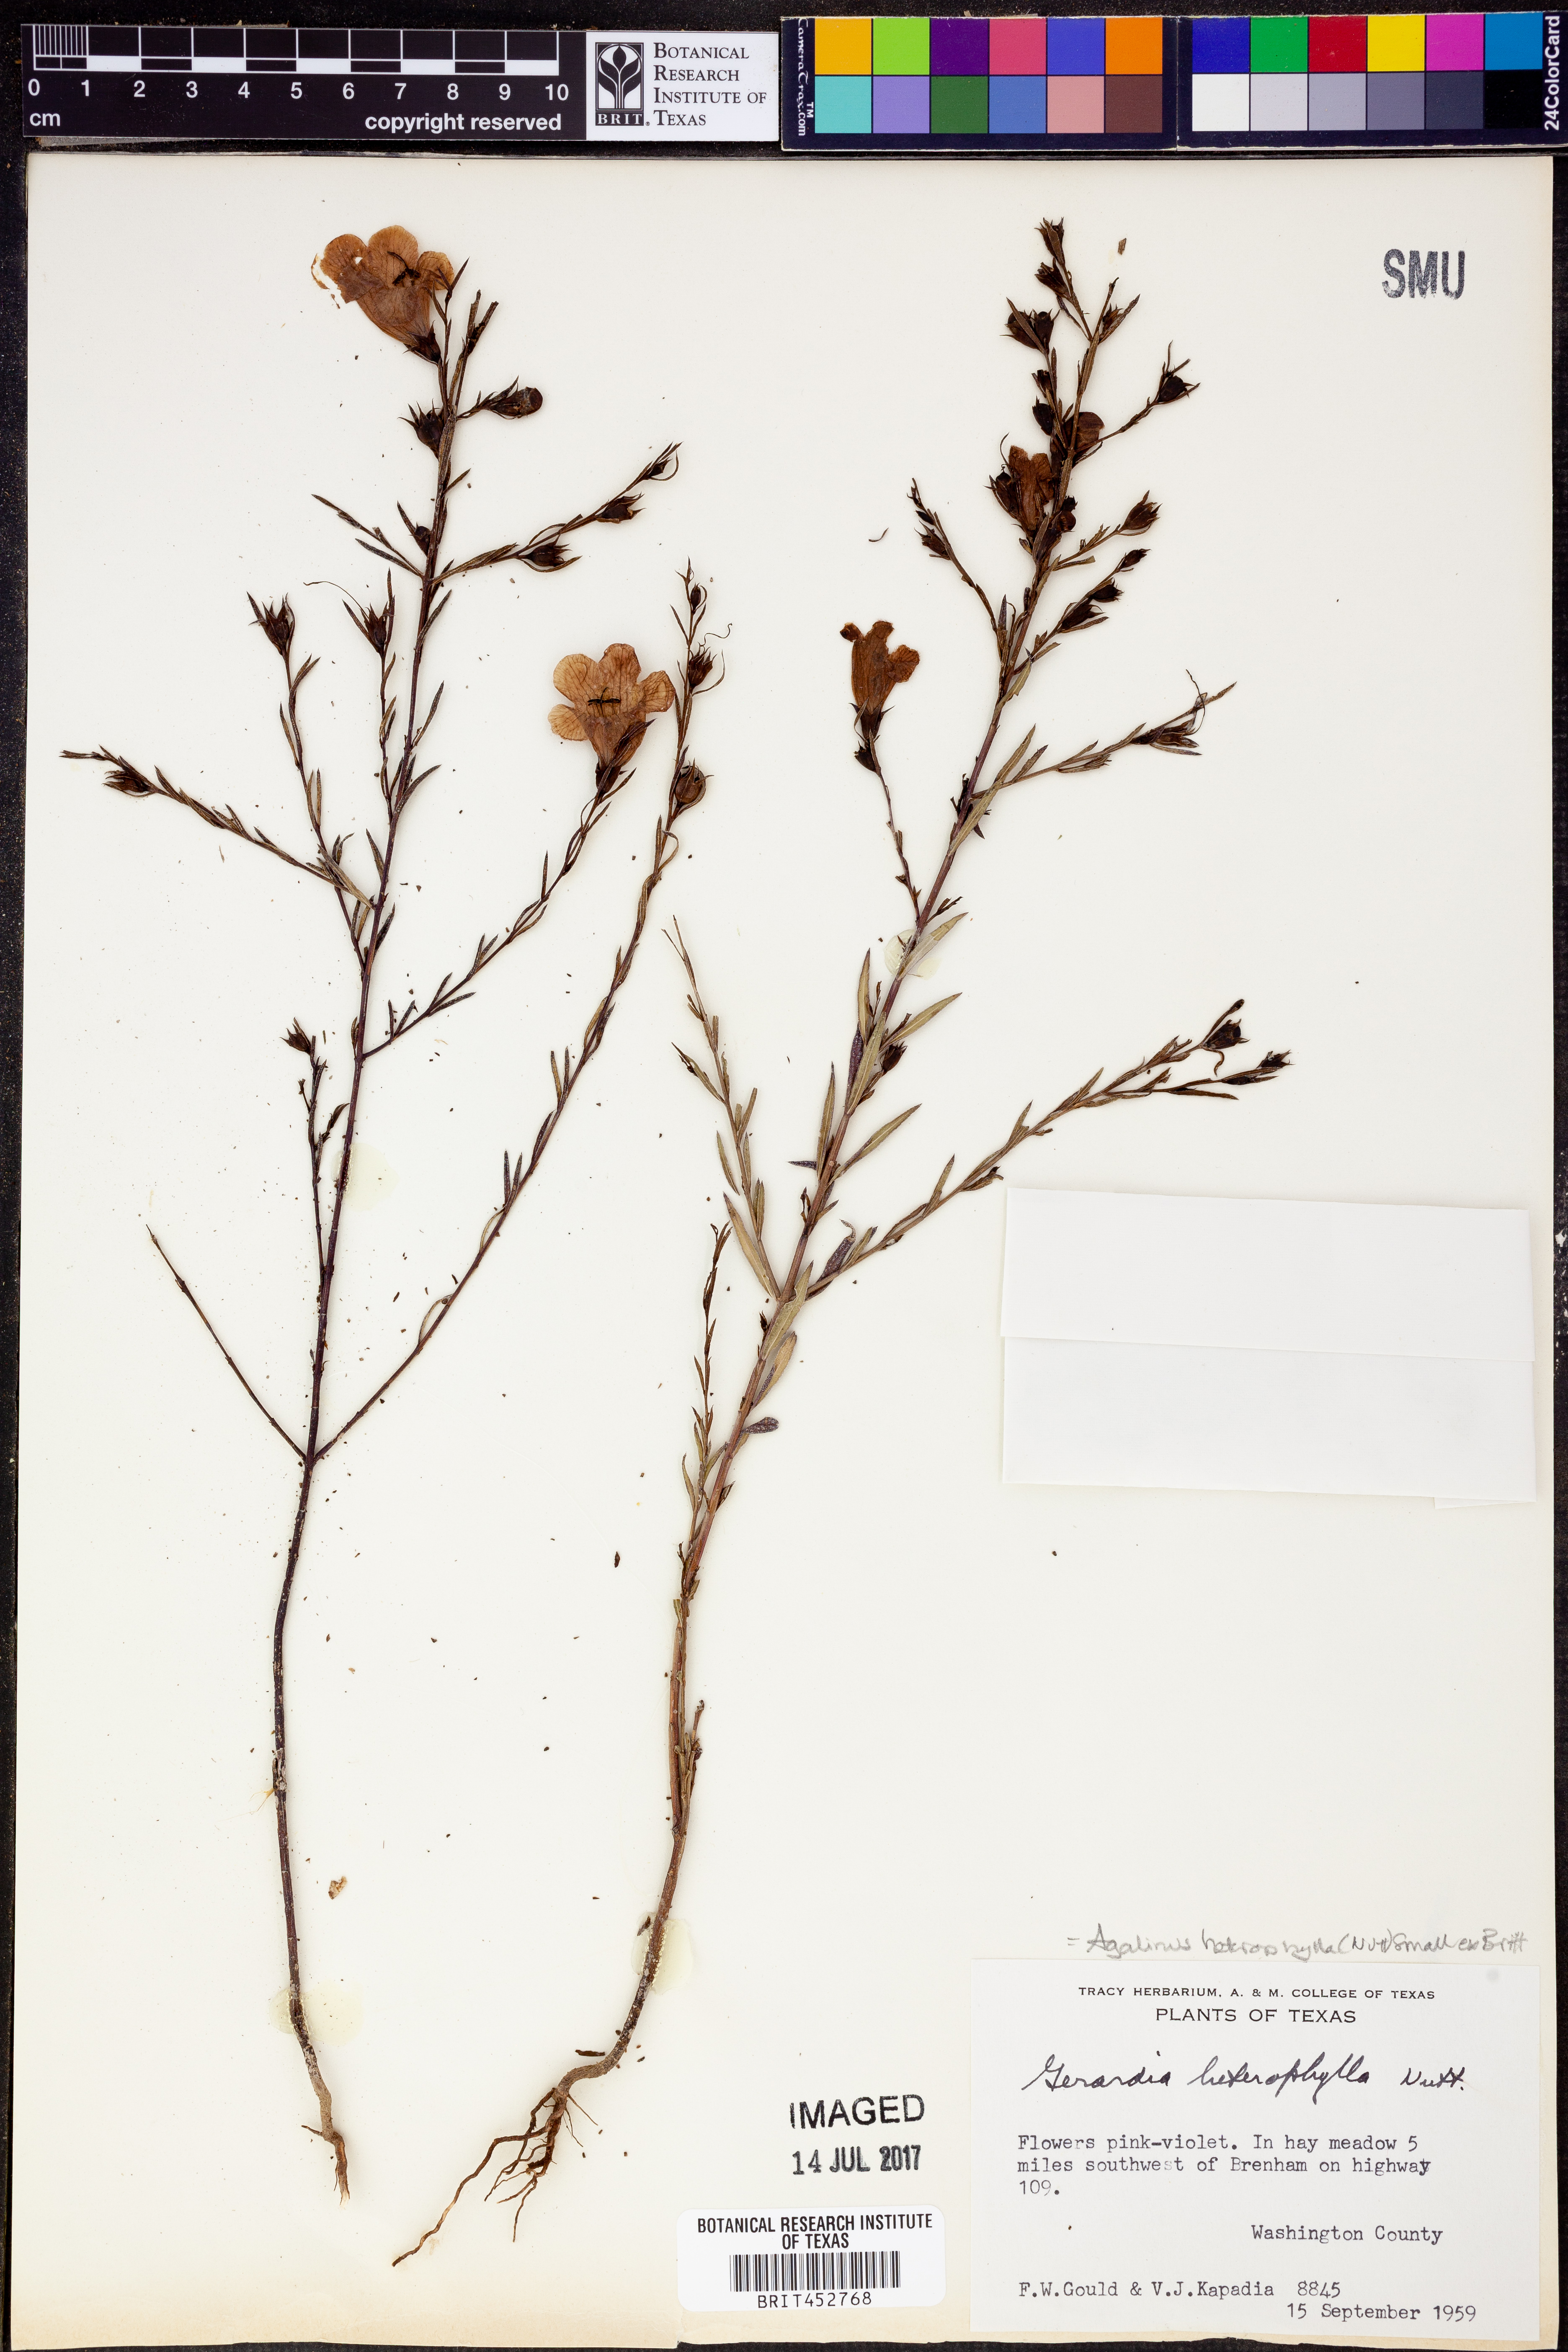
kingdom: Plantae
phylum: Tracheophyta
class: Magnoliopsida
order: Lamiales
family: Orobanchaceae
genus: Agalinis
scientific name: Agalinis heterophylla
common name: Prairie agalinis
